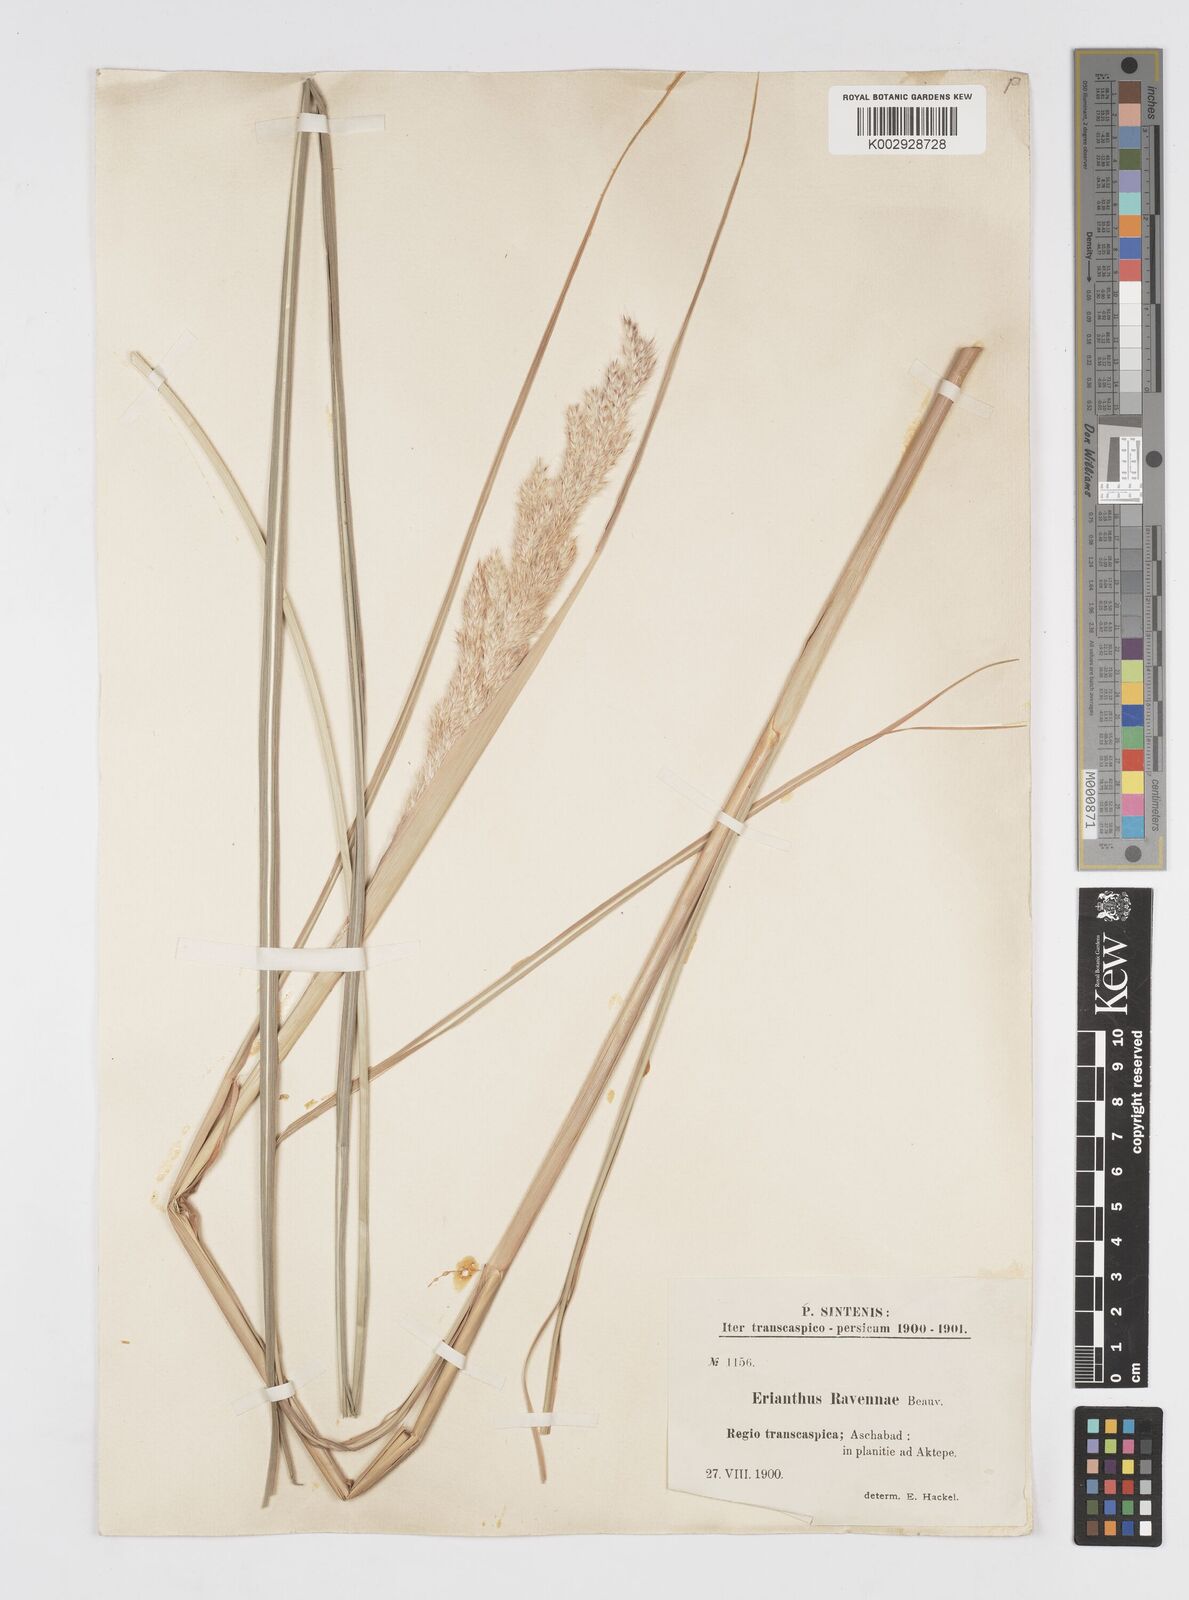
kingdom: Plantae
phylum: Tracheophyta
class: Liliopsida
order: Poales
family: Poaceae
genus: Tripidium
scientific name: Tripidium ravennae
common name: Ravenna grass
